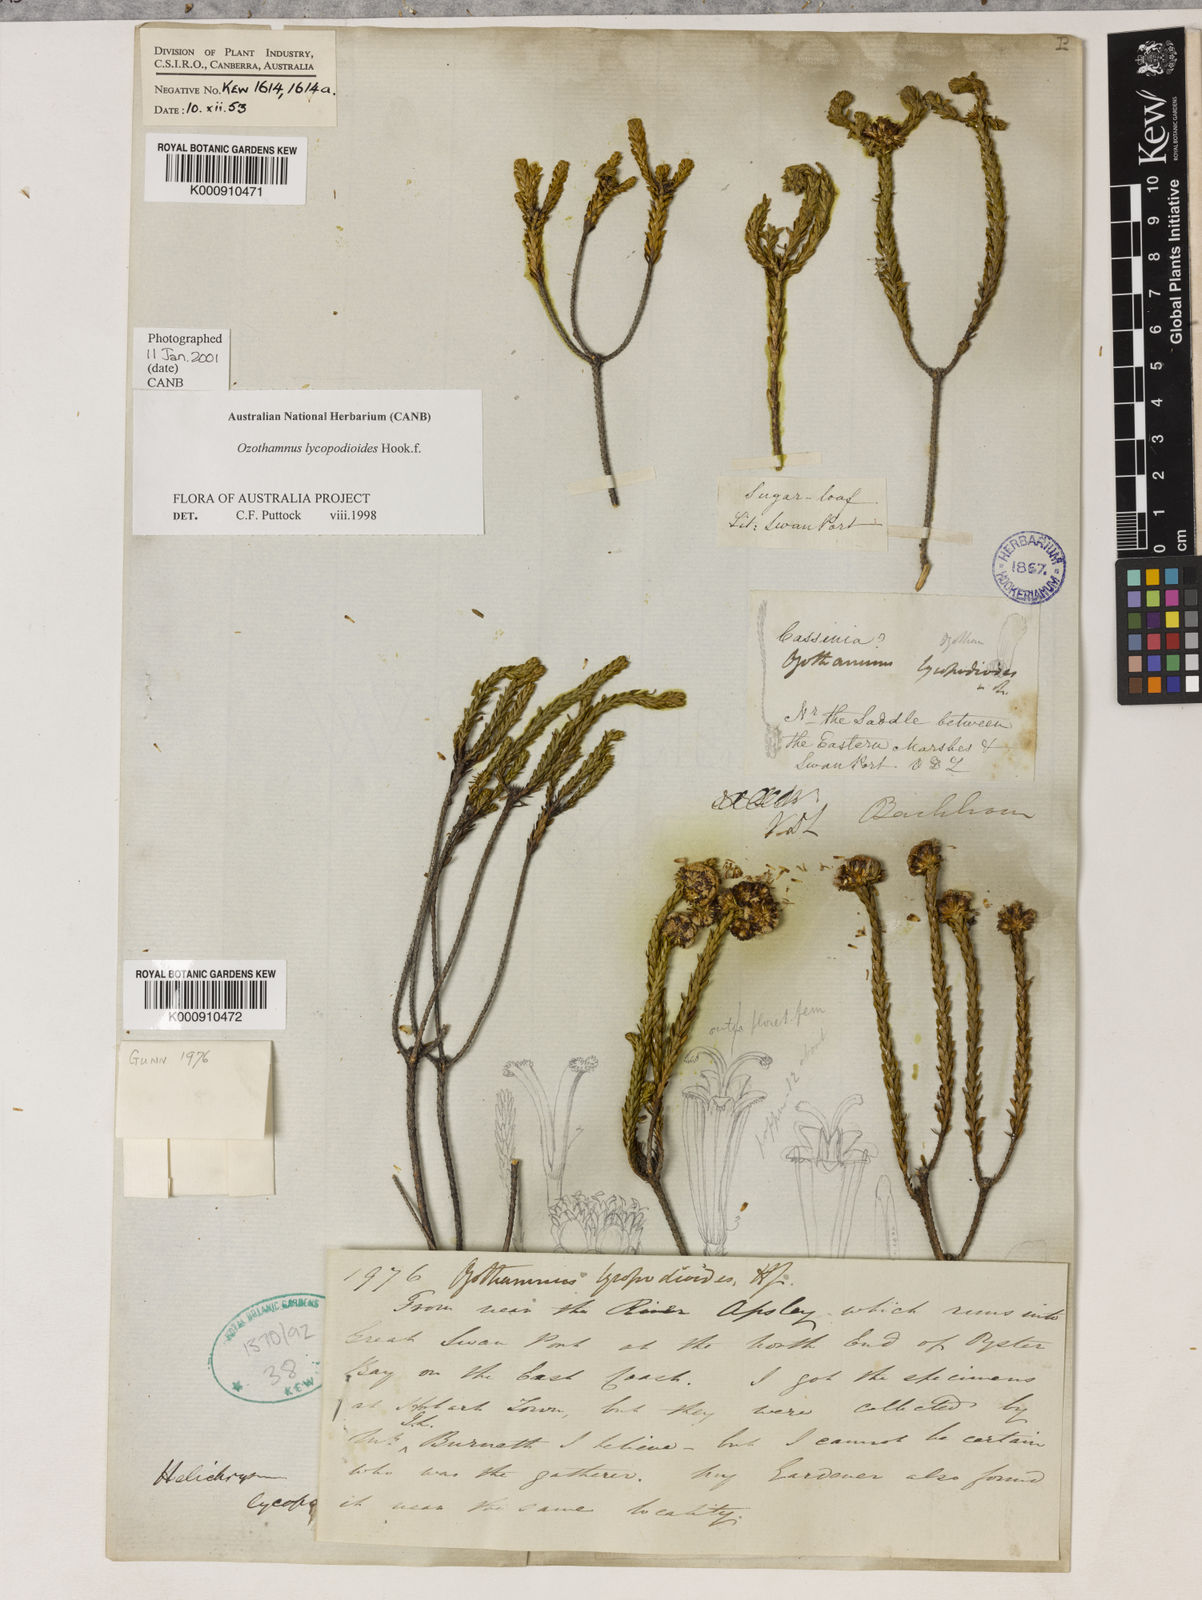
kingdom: Plantae
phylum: Tracheophyta
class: Magnoliopsida
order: Asterales
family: Asteraceae
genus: Ozothamnus
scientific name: Ozothamnus lycopodioides
